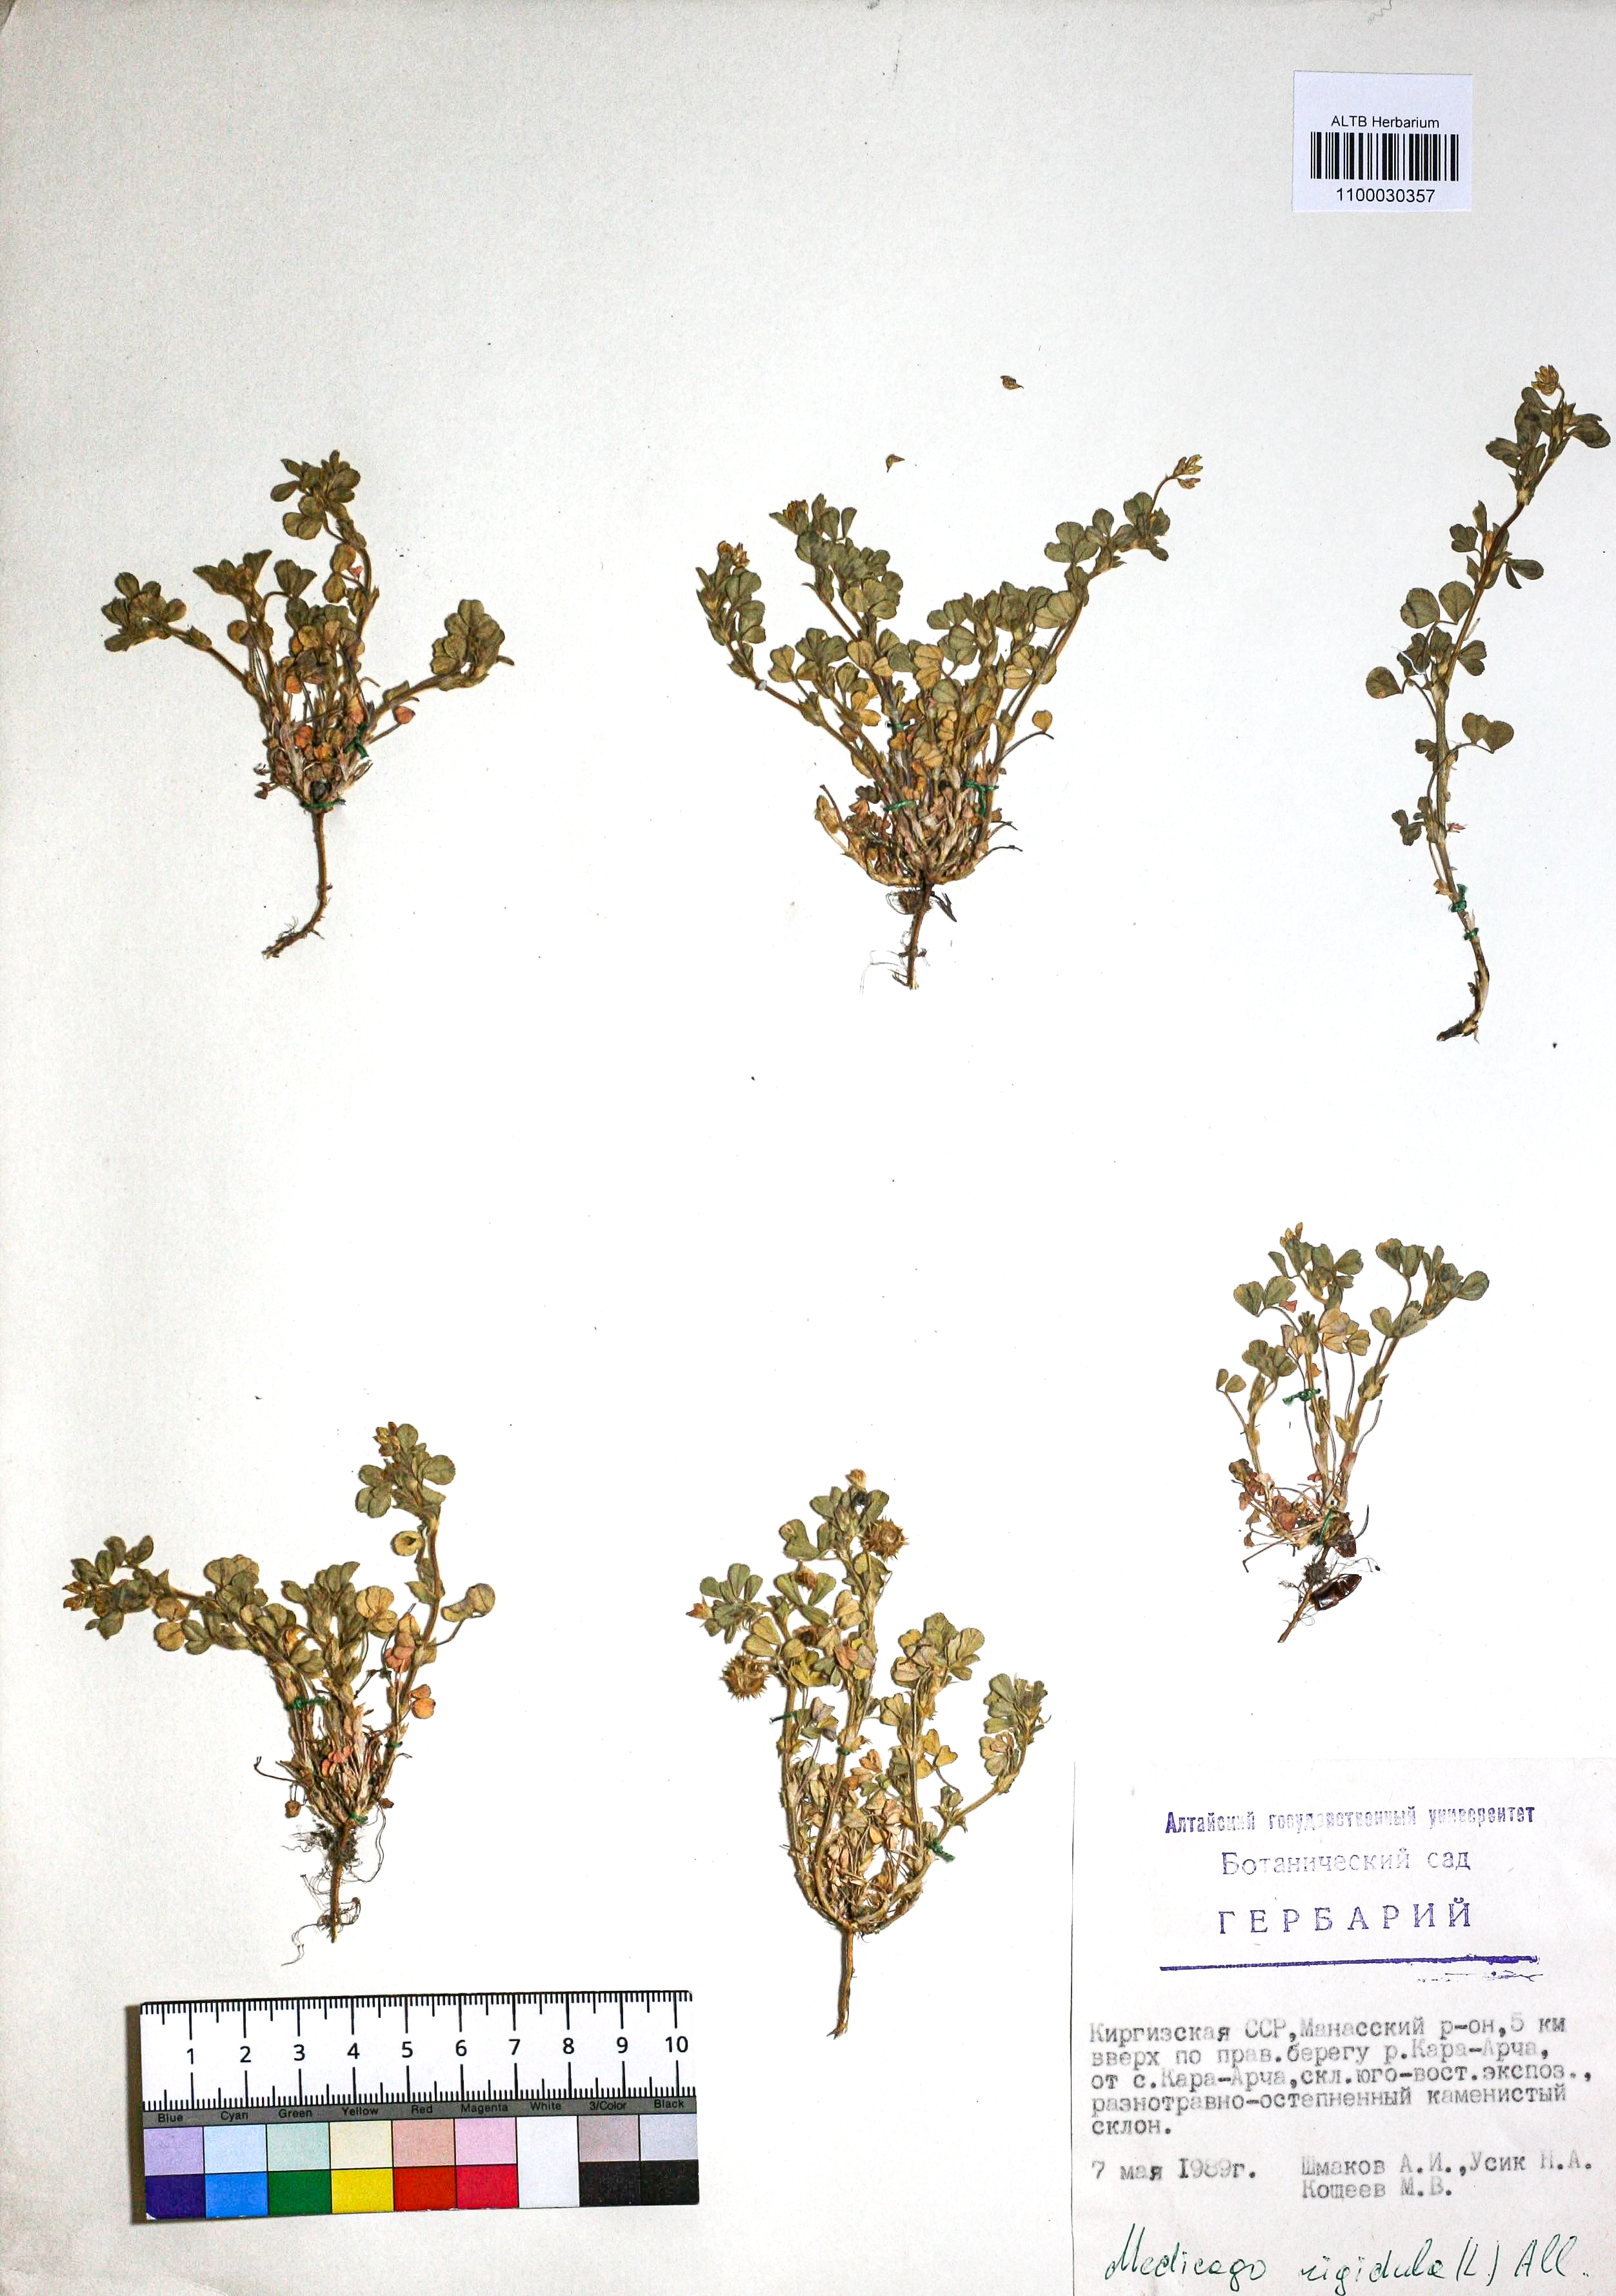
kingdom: Plantae
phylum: Tracheophyta
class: Magnoliopsida
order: Fabales
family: Fabaceae
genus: Medicago
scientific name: Medicago rigidula
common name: Tifton medic
